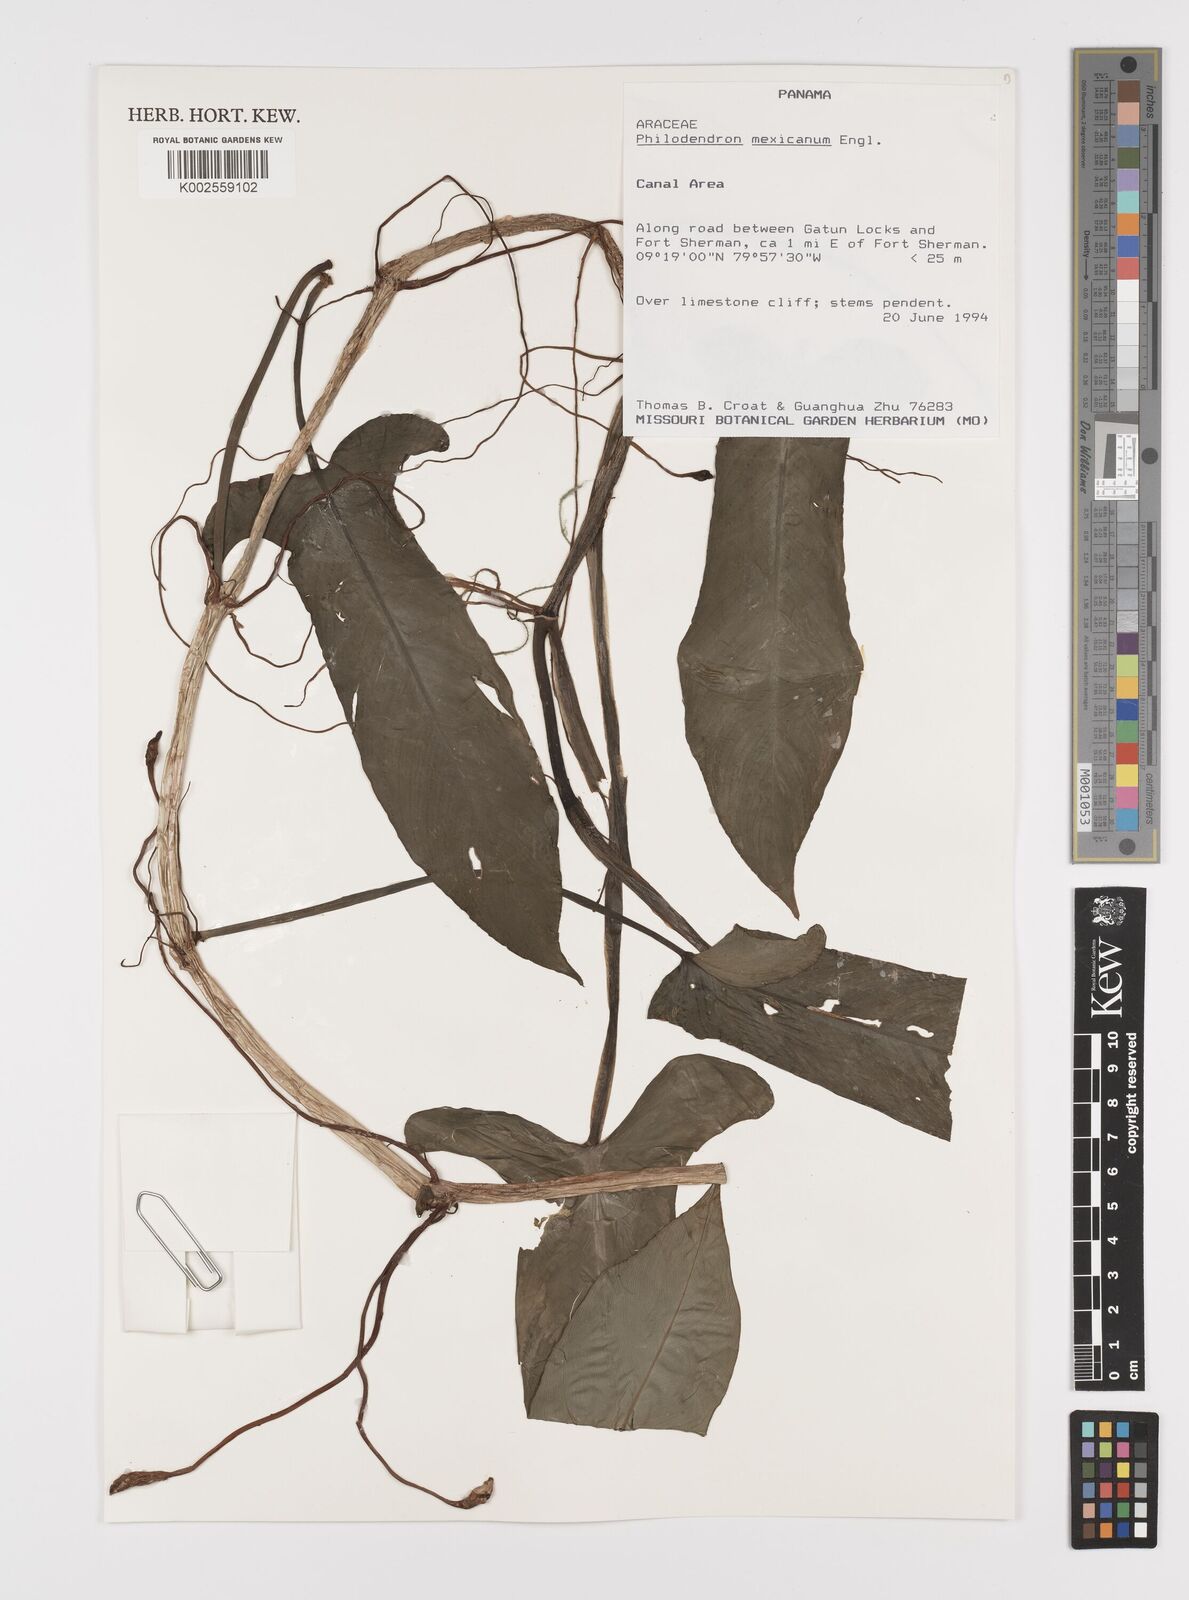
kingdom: Plantae
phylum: Tracheophyta
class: Liliopsida
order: Alismatales
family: Araceae
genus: Philodendron
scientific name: Philodendron mexicanum
